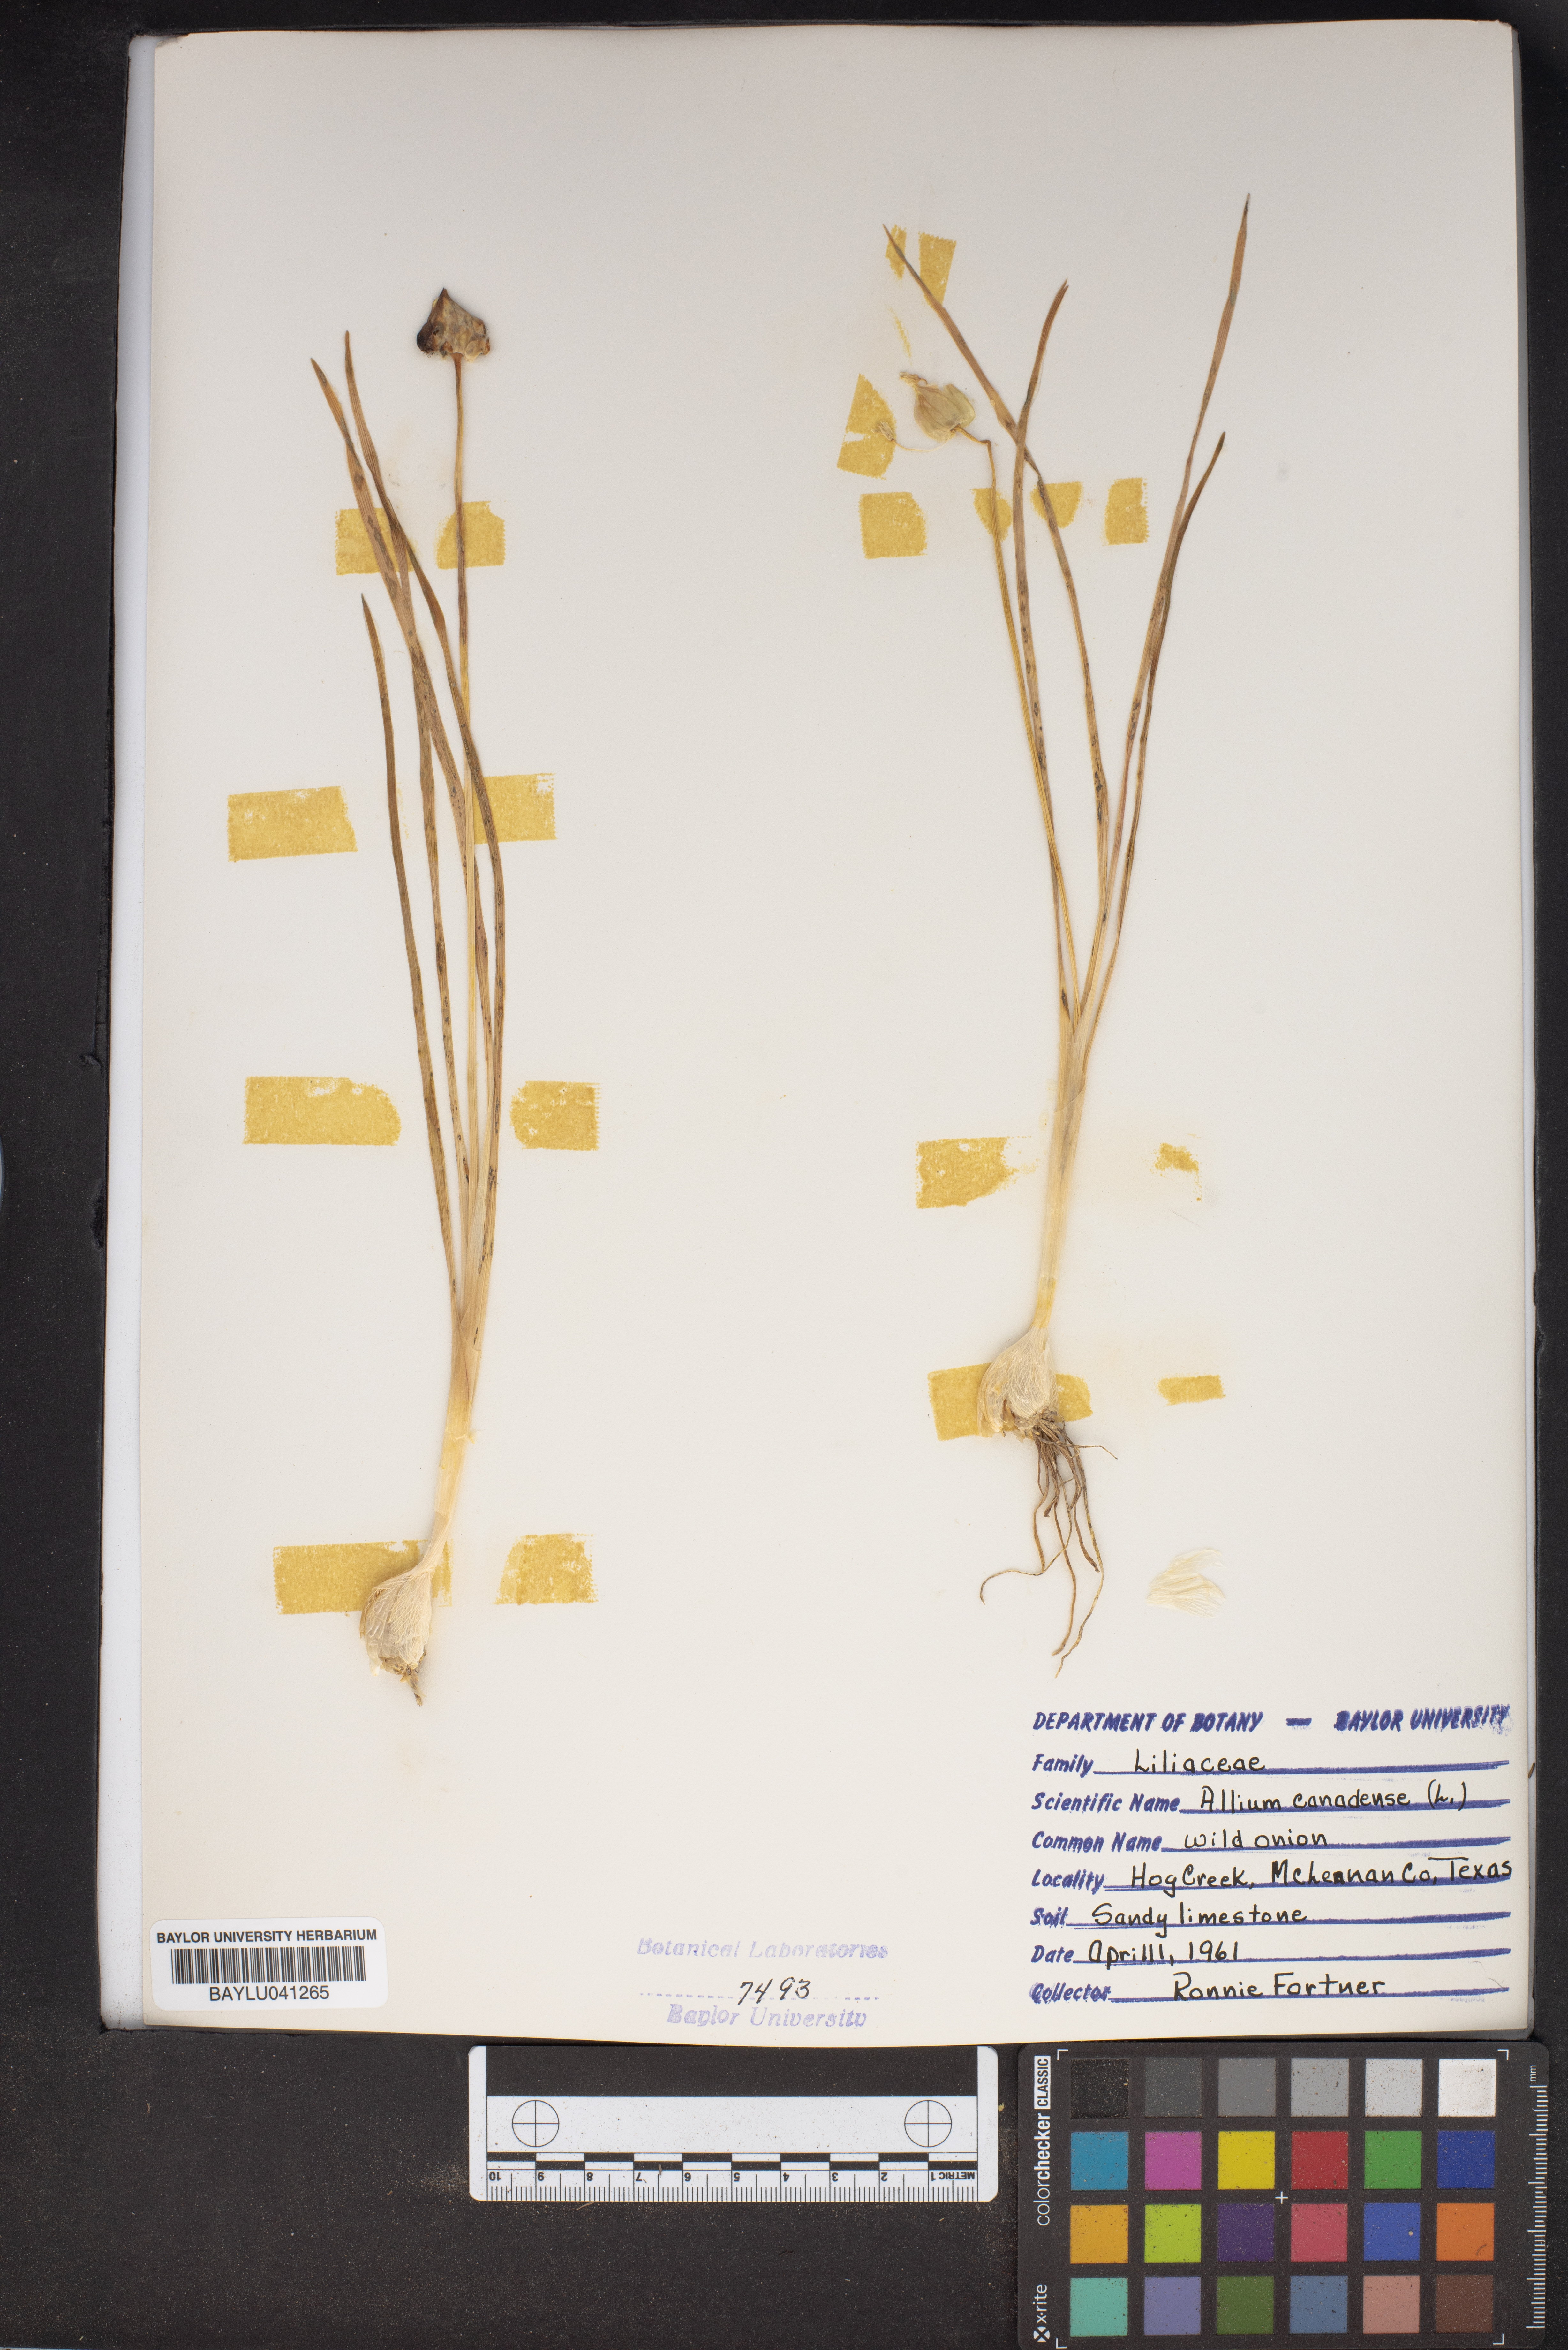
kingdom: Plantae
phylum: Tracheophyta
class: Liliopsida
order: Asparagales
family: Amaryllidaceae
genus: Allium
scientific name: Allium canadense
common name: Meadow garlic
